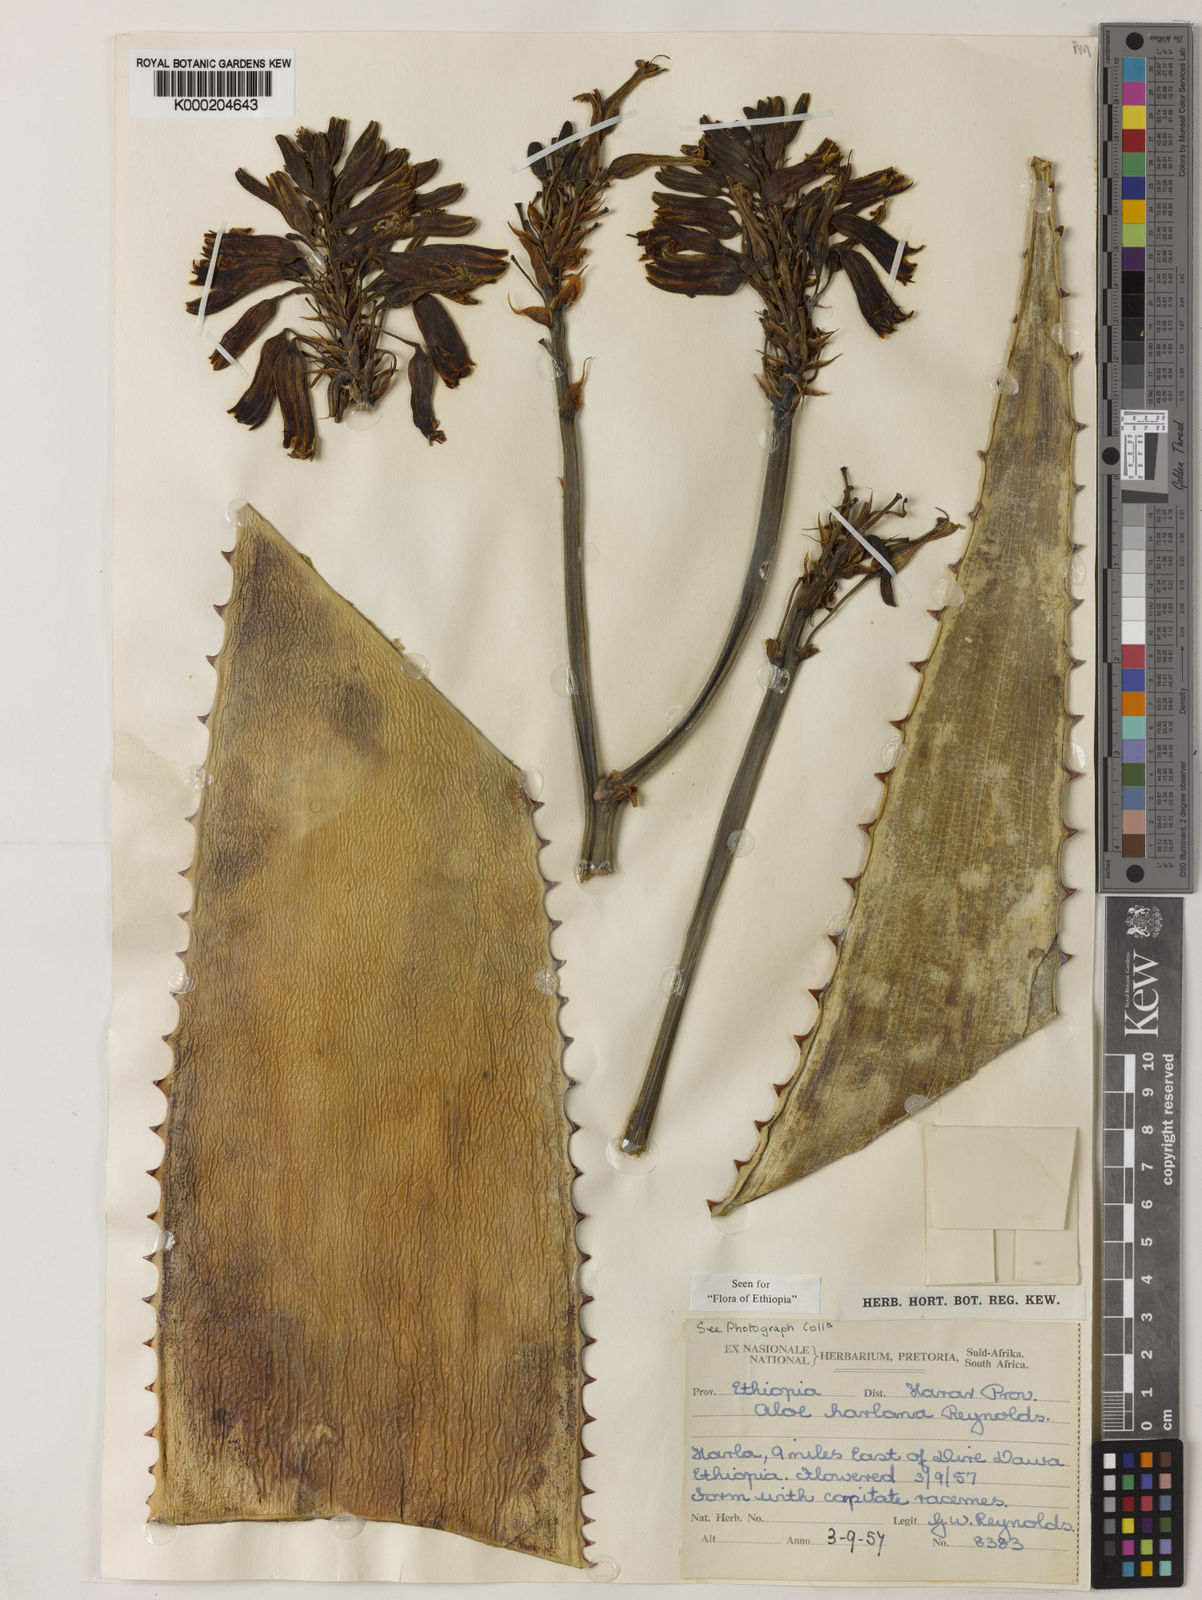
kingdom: Plantae
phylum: Tracheophyta
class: Liliopsida
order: Asparagales
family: Asphodelaceae
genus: Aloe
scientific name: Aloe harlana
